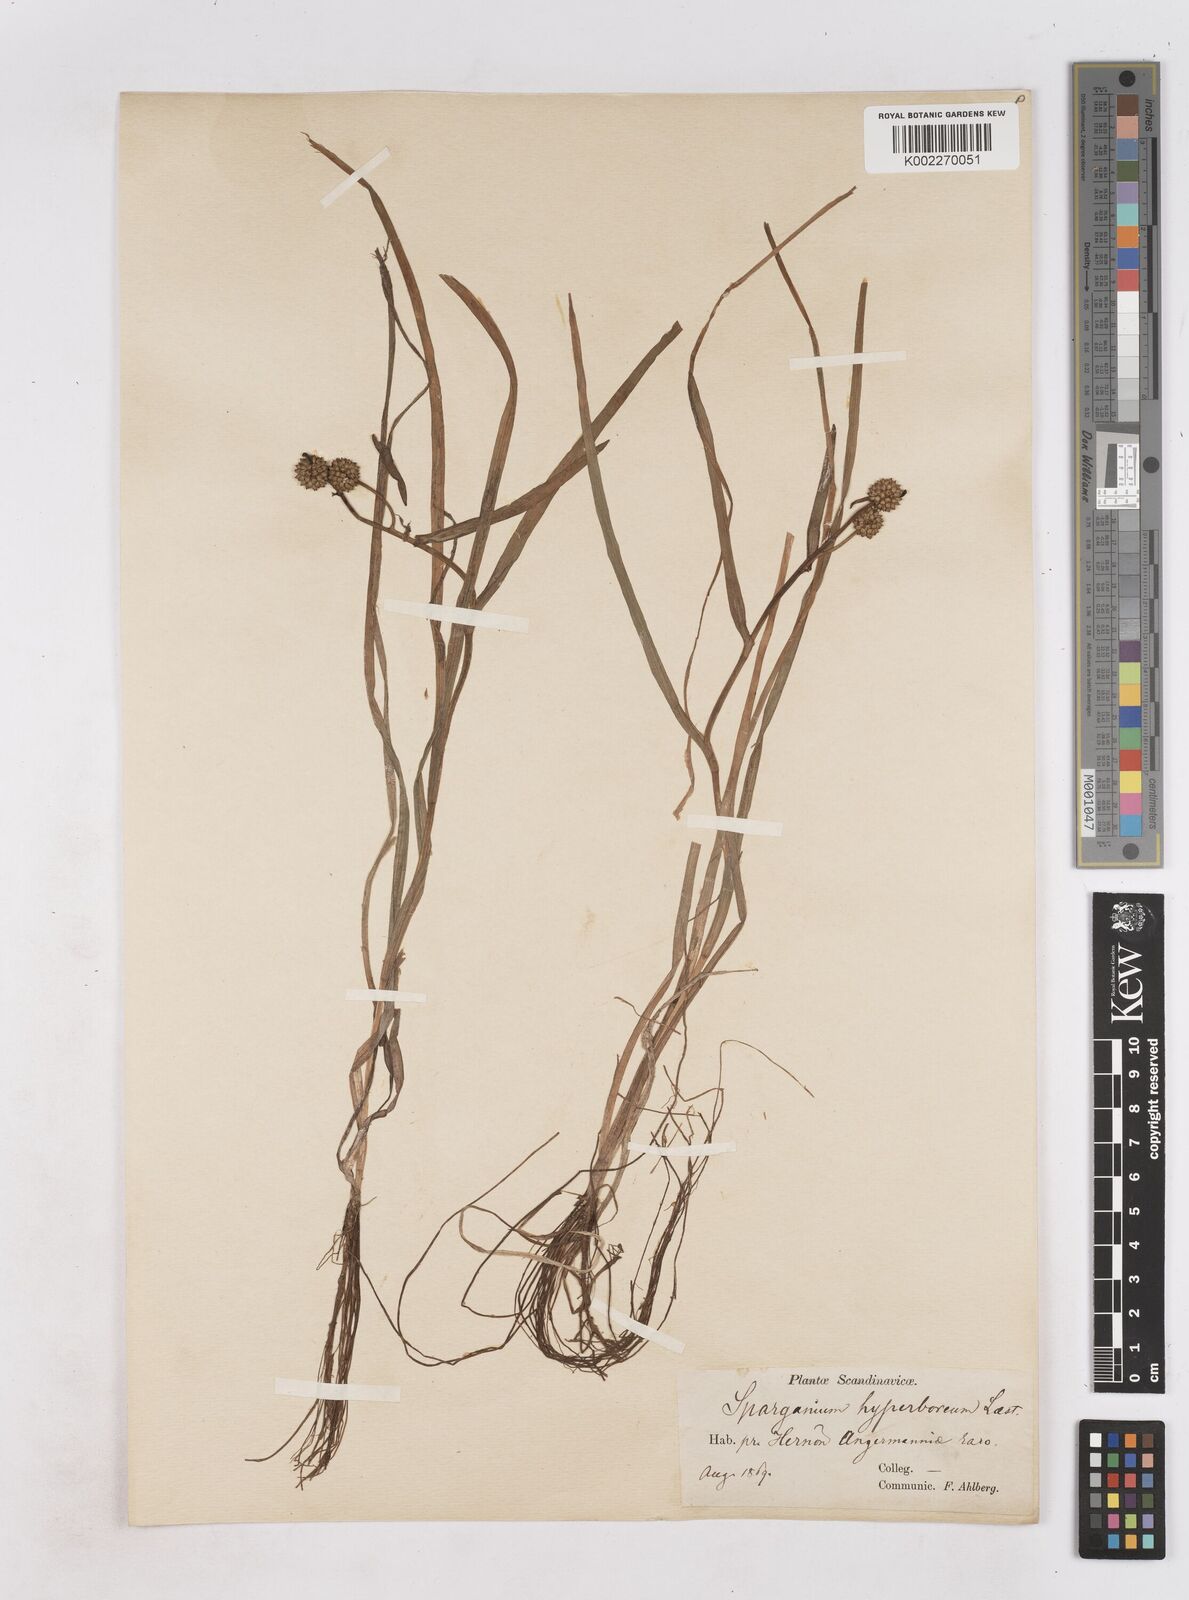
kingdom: Plantae
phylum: Tracheophyta
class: Liliopsida
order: Poales
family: Typhaceae
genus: Sparganium
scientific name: Sparganium hyperboreum
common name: Arctic burreed
